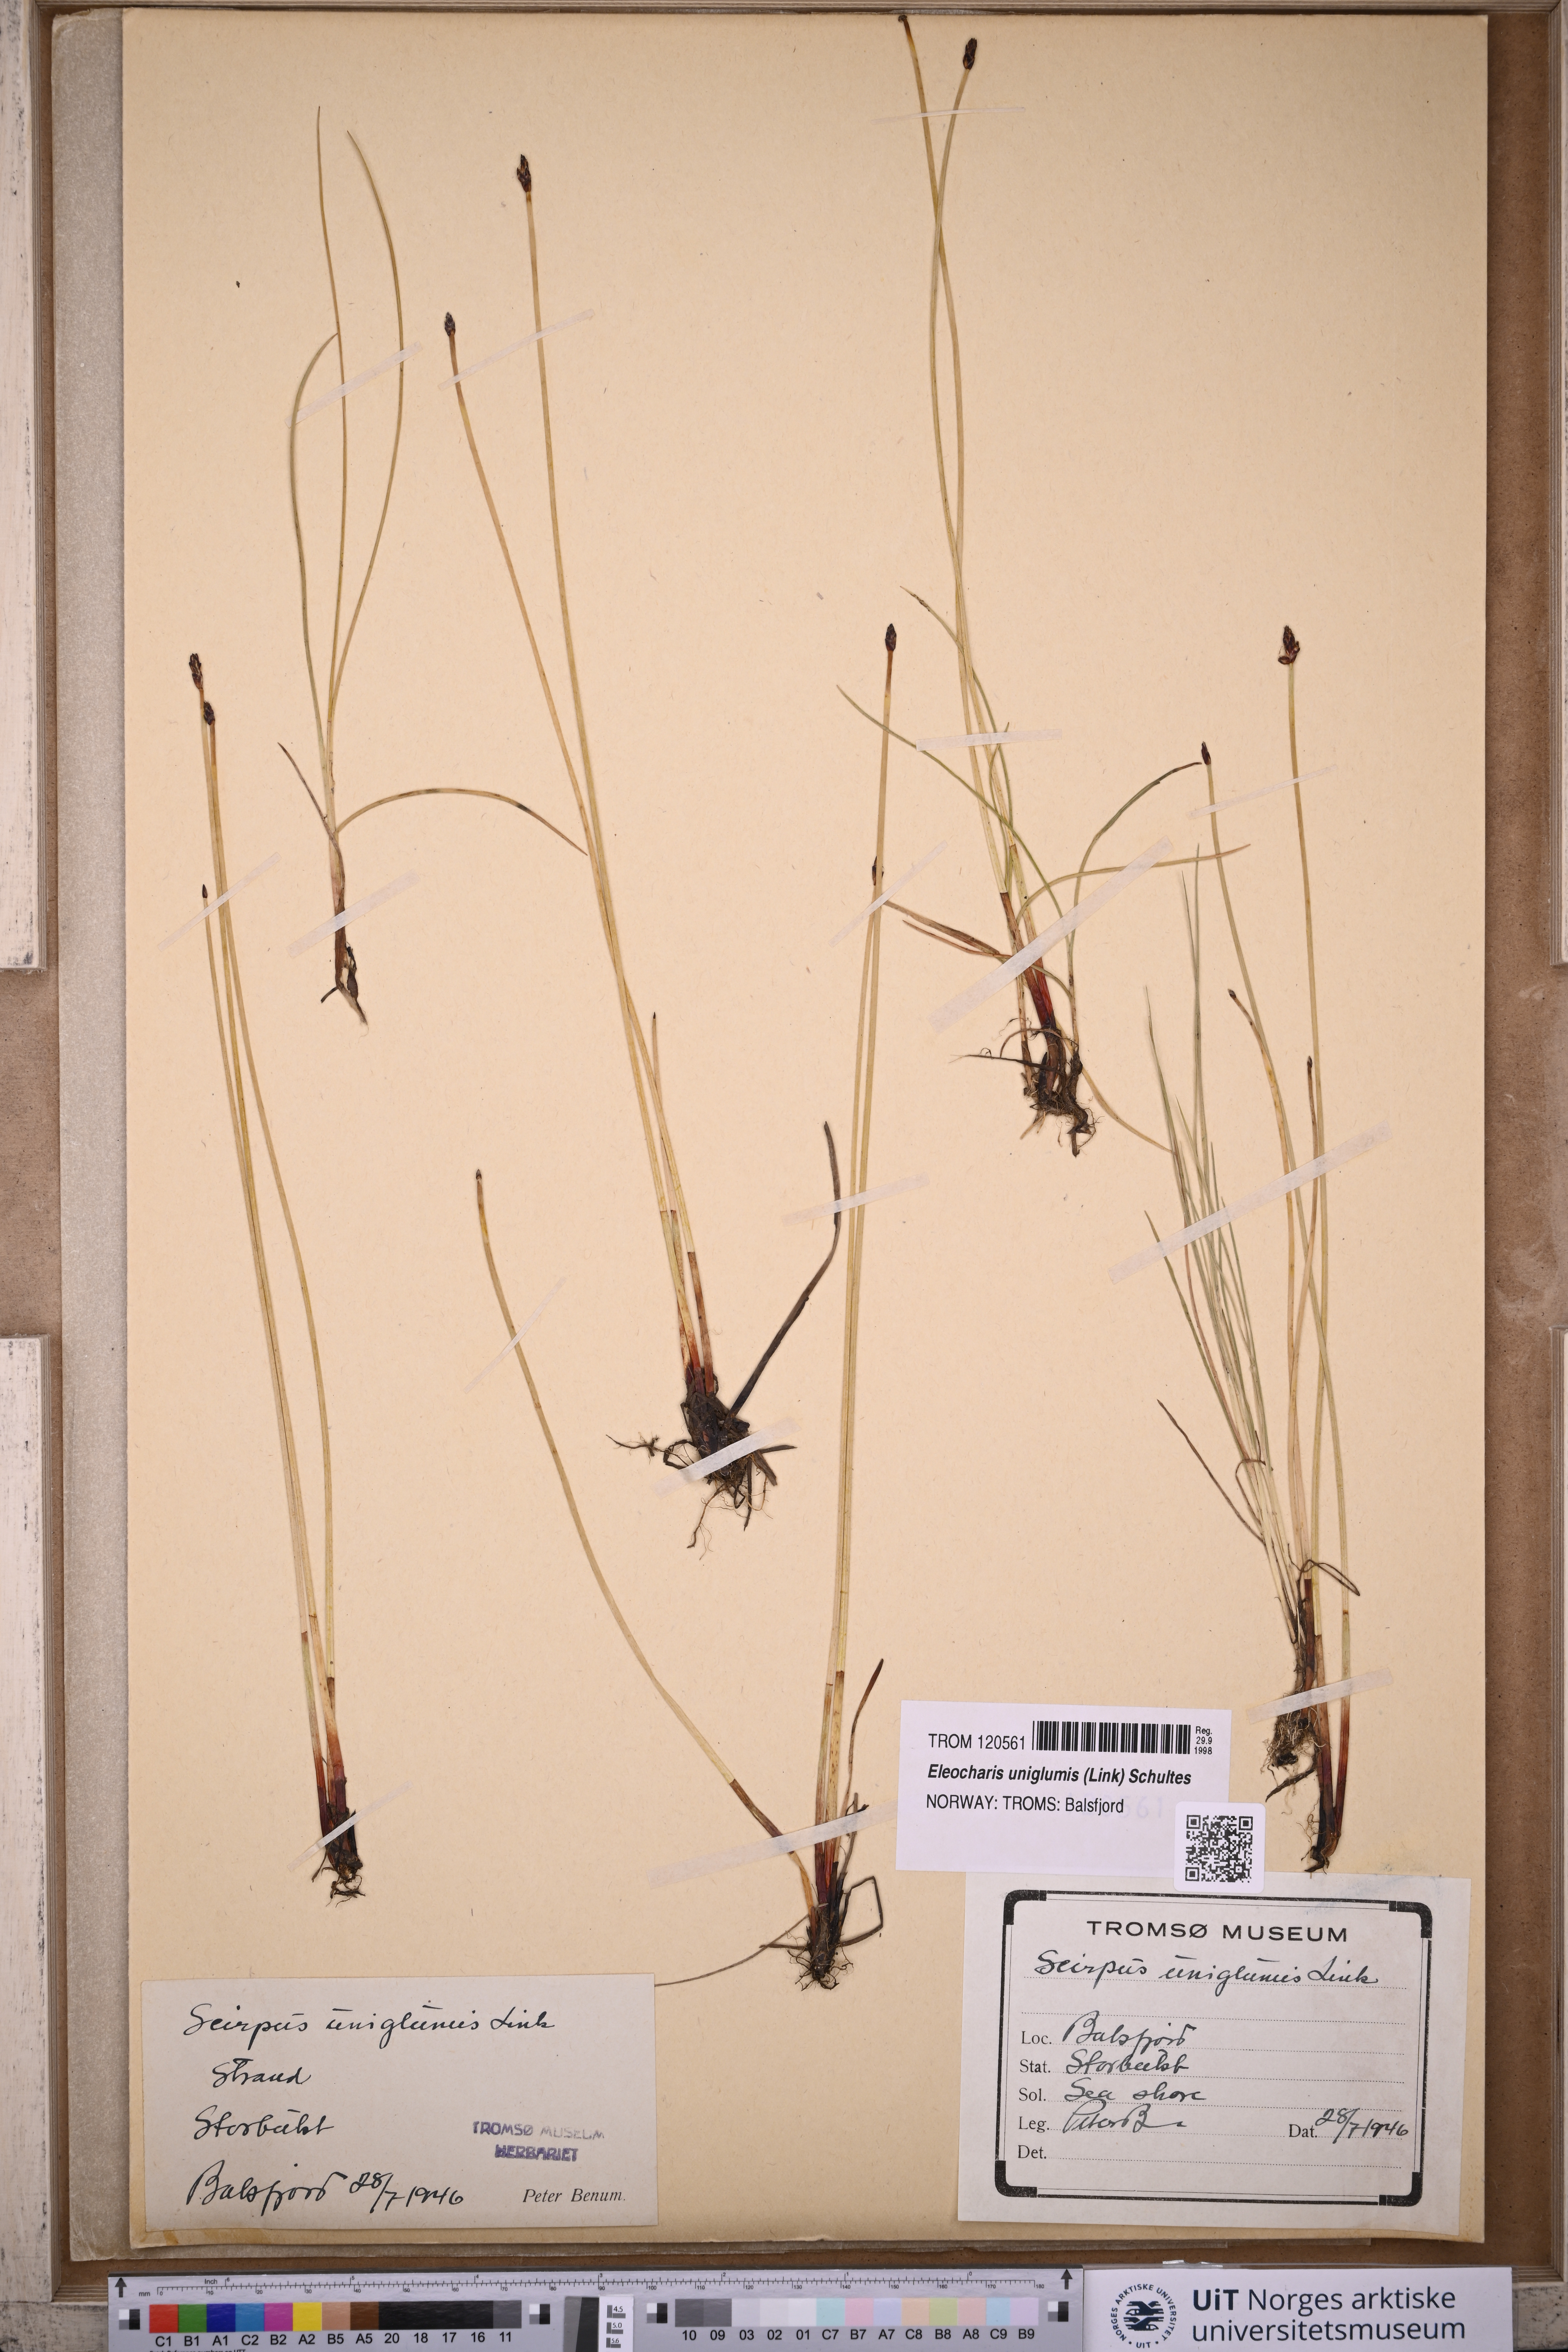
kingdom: Plantae
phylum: Tracheophyta
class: Liliopsida
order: Poales
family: Cyperaceae
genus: Eleocharis
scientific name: Eleocharis uniglumis
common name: Slender spike-rush
